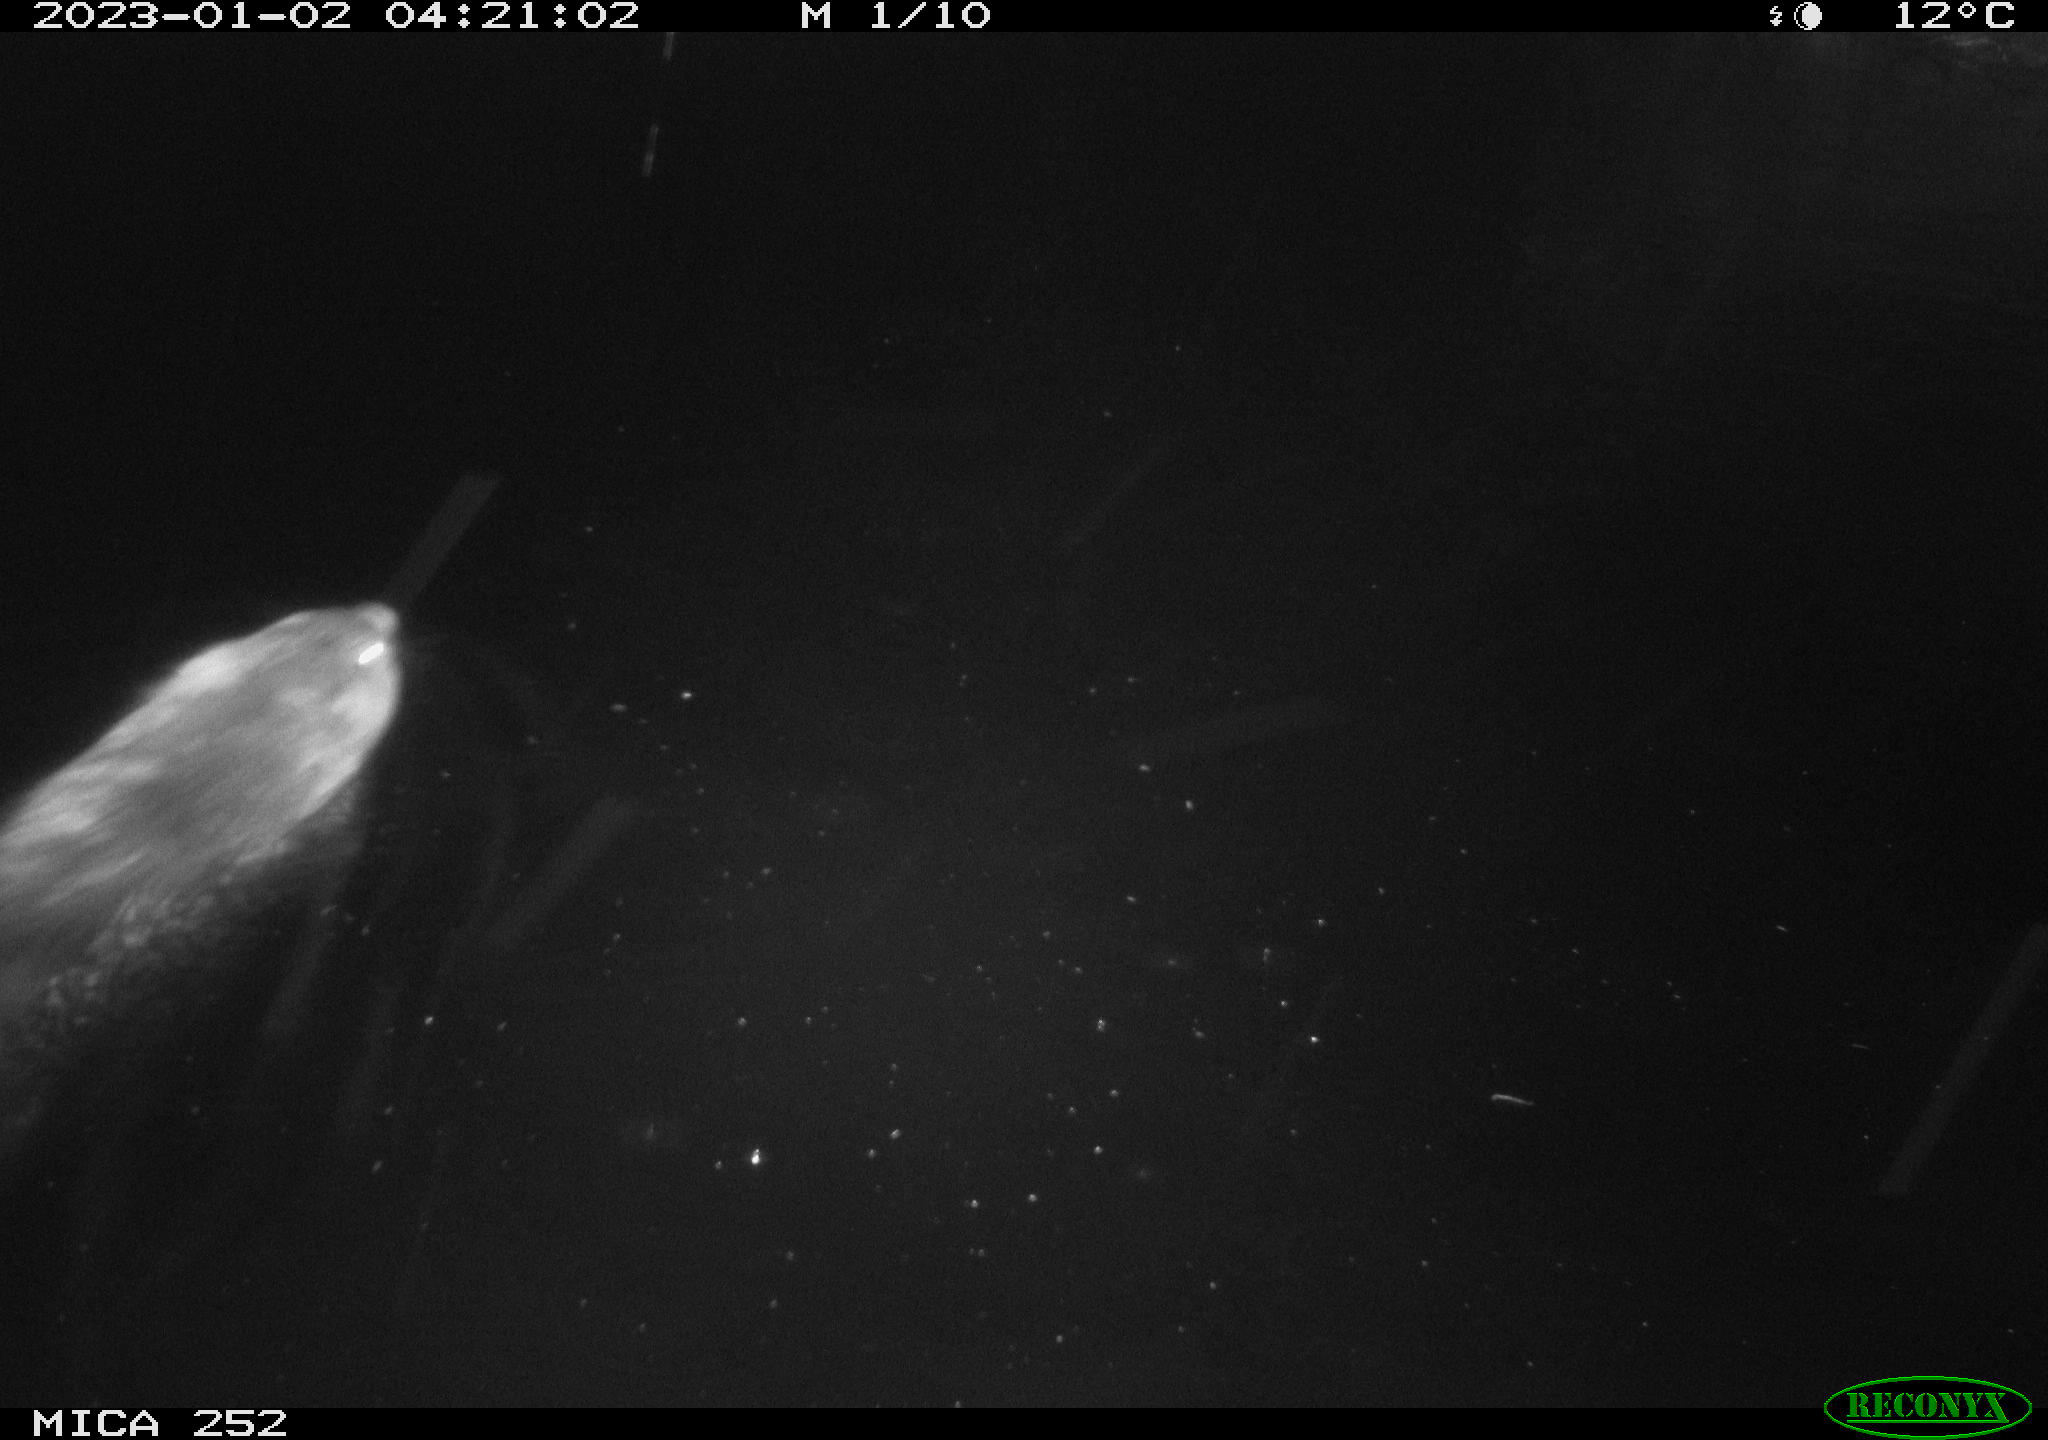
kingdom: Animalia
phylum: Chordata
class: Mammalia
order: Rodentia
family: Castoridae
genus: Castor
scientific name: Castor fiber
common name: Eurasian beaver
